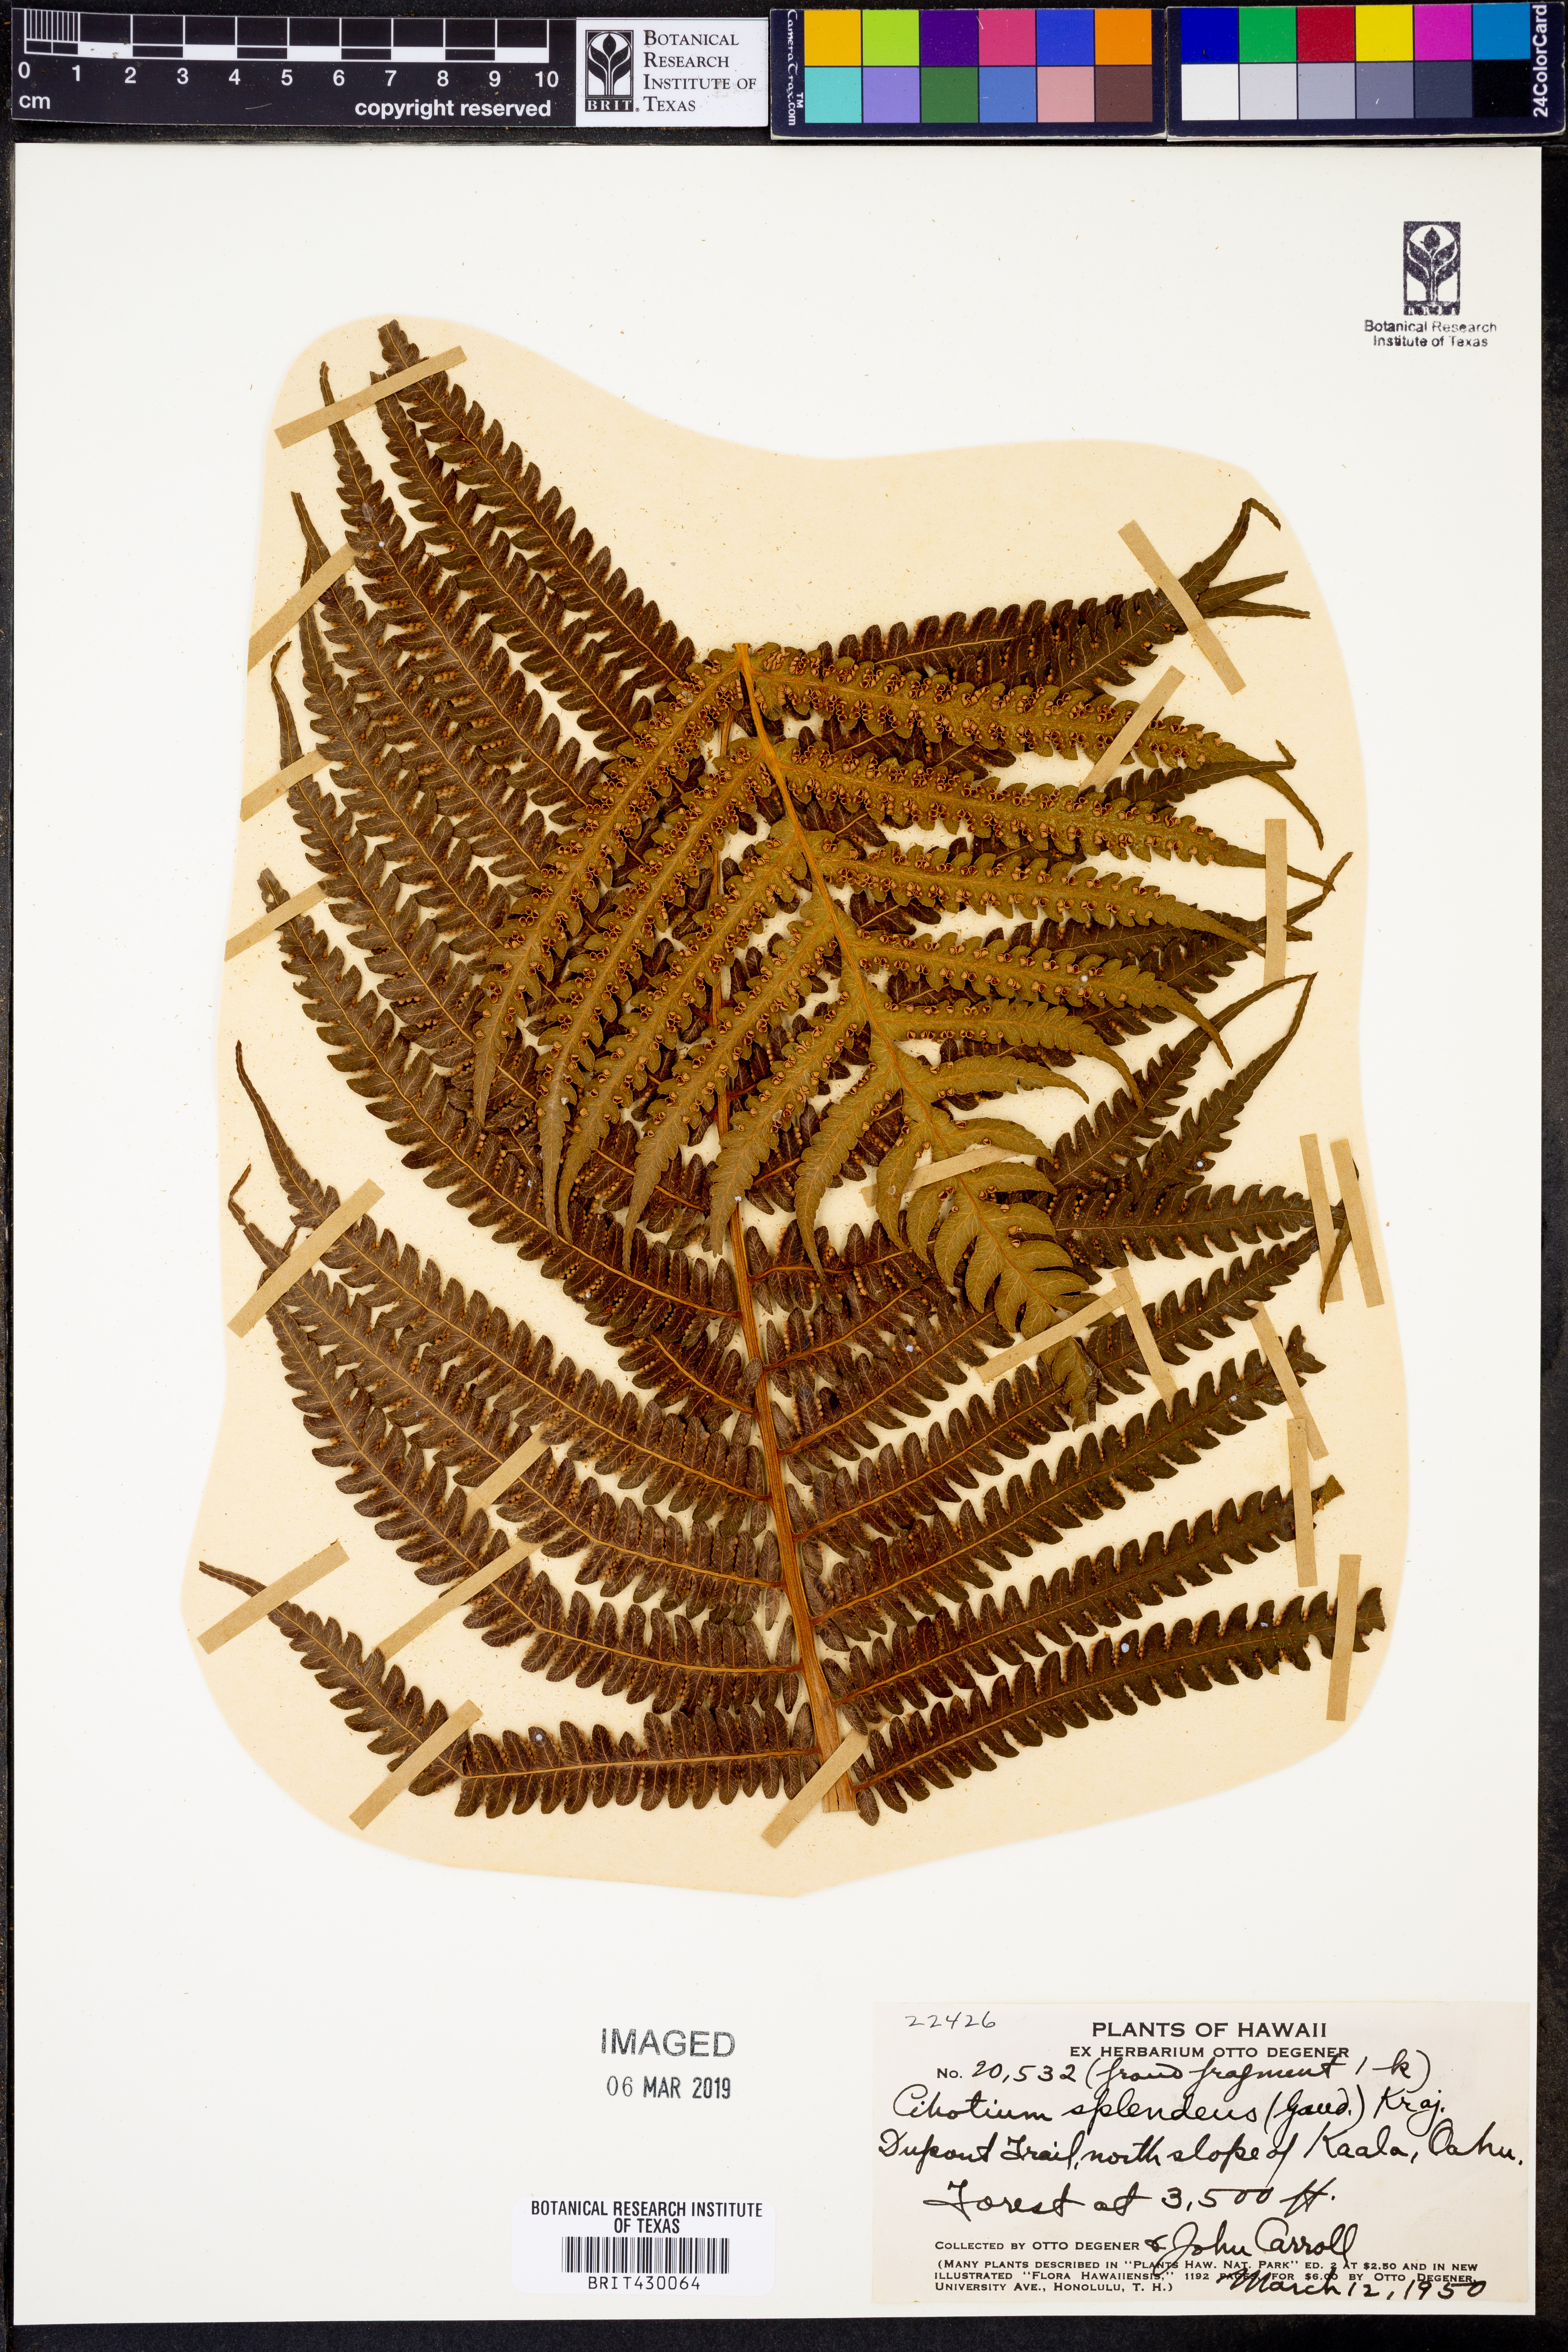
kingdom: Plantae
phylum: Tracheophyta
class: Polypodiopsida
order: Cyatheales
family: Cibotiaceae
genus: Cibotium
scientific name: Cibotium chamissoi
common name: Hawaiian tree fern
